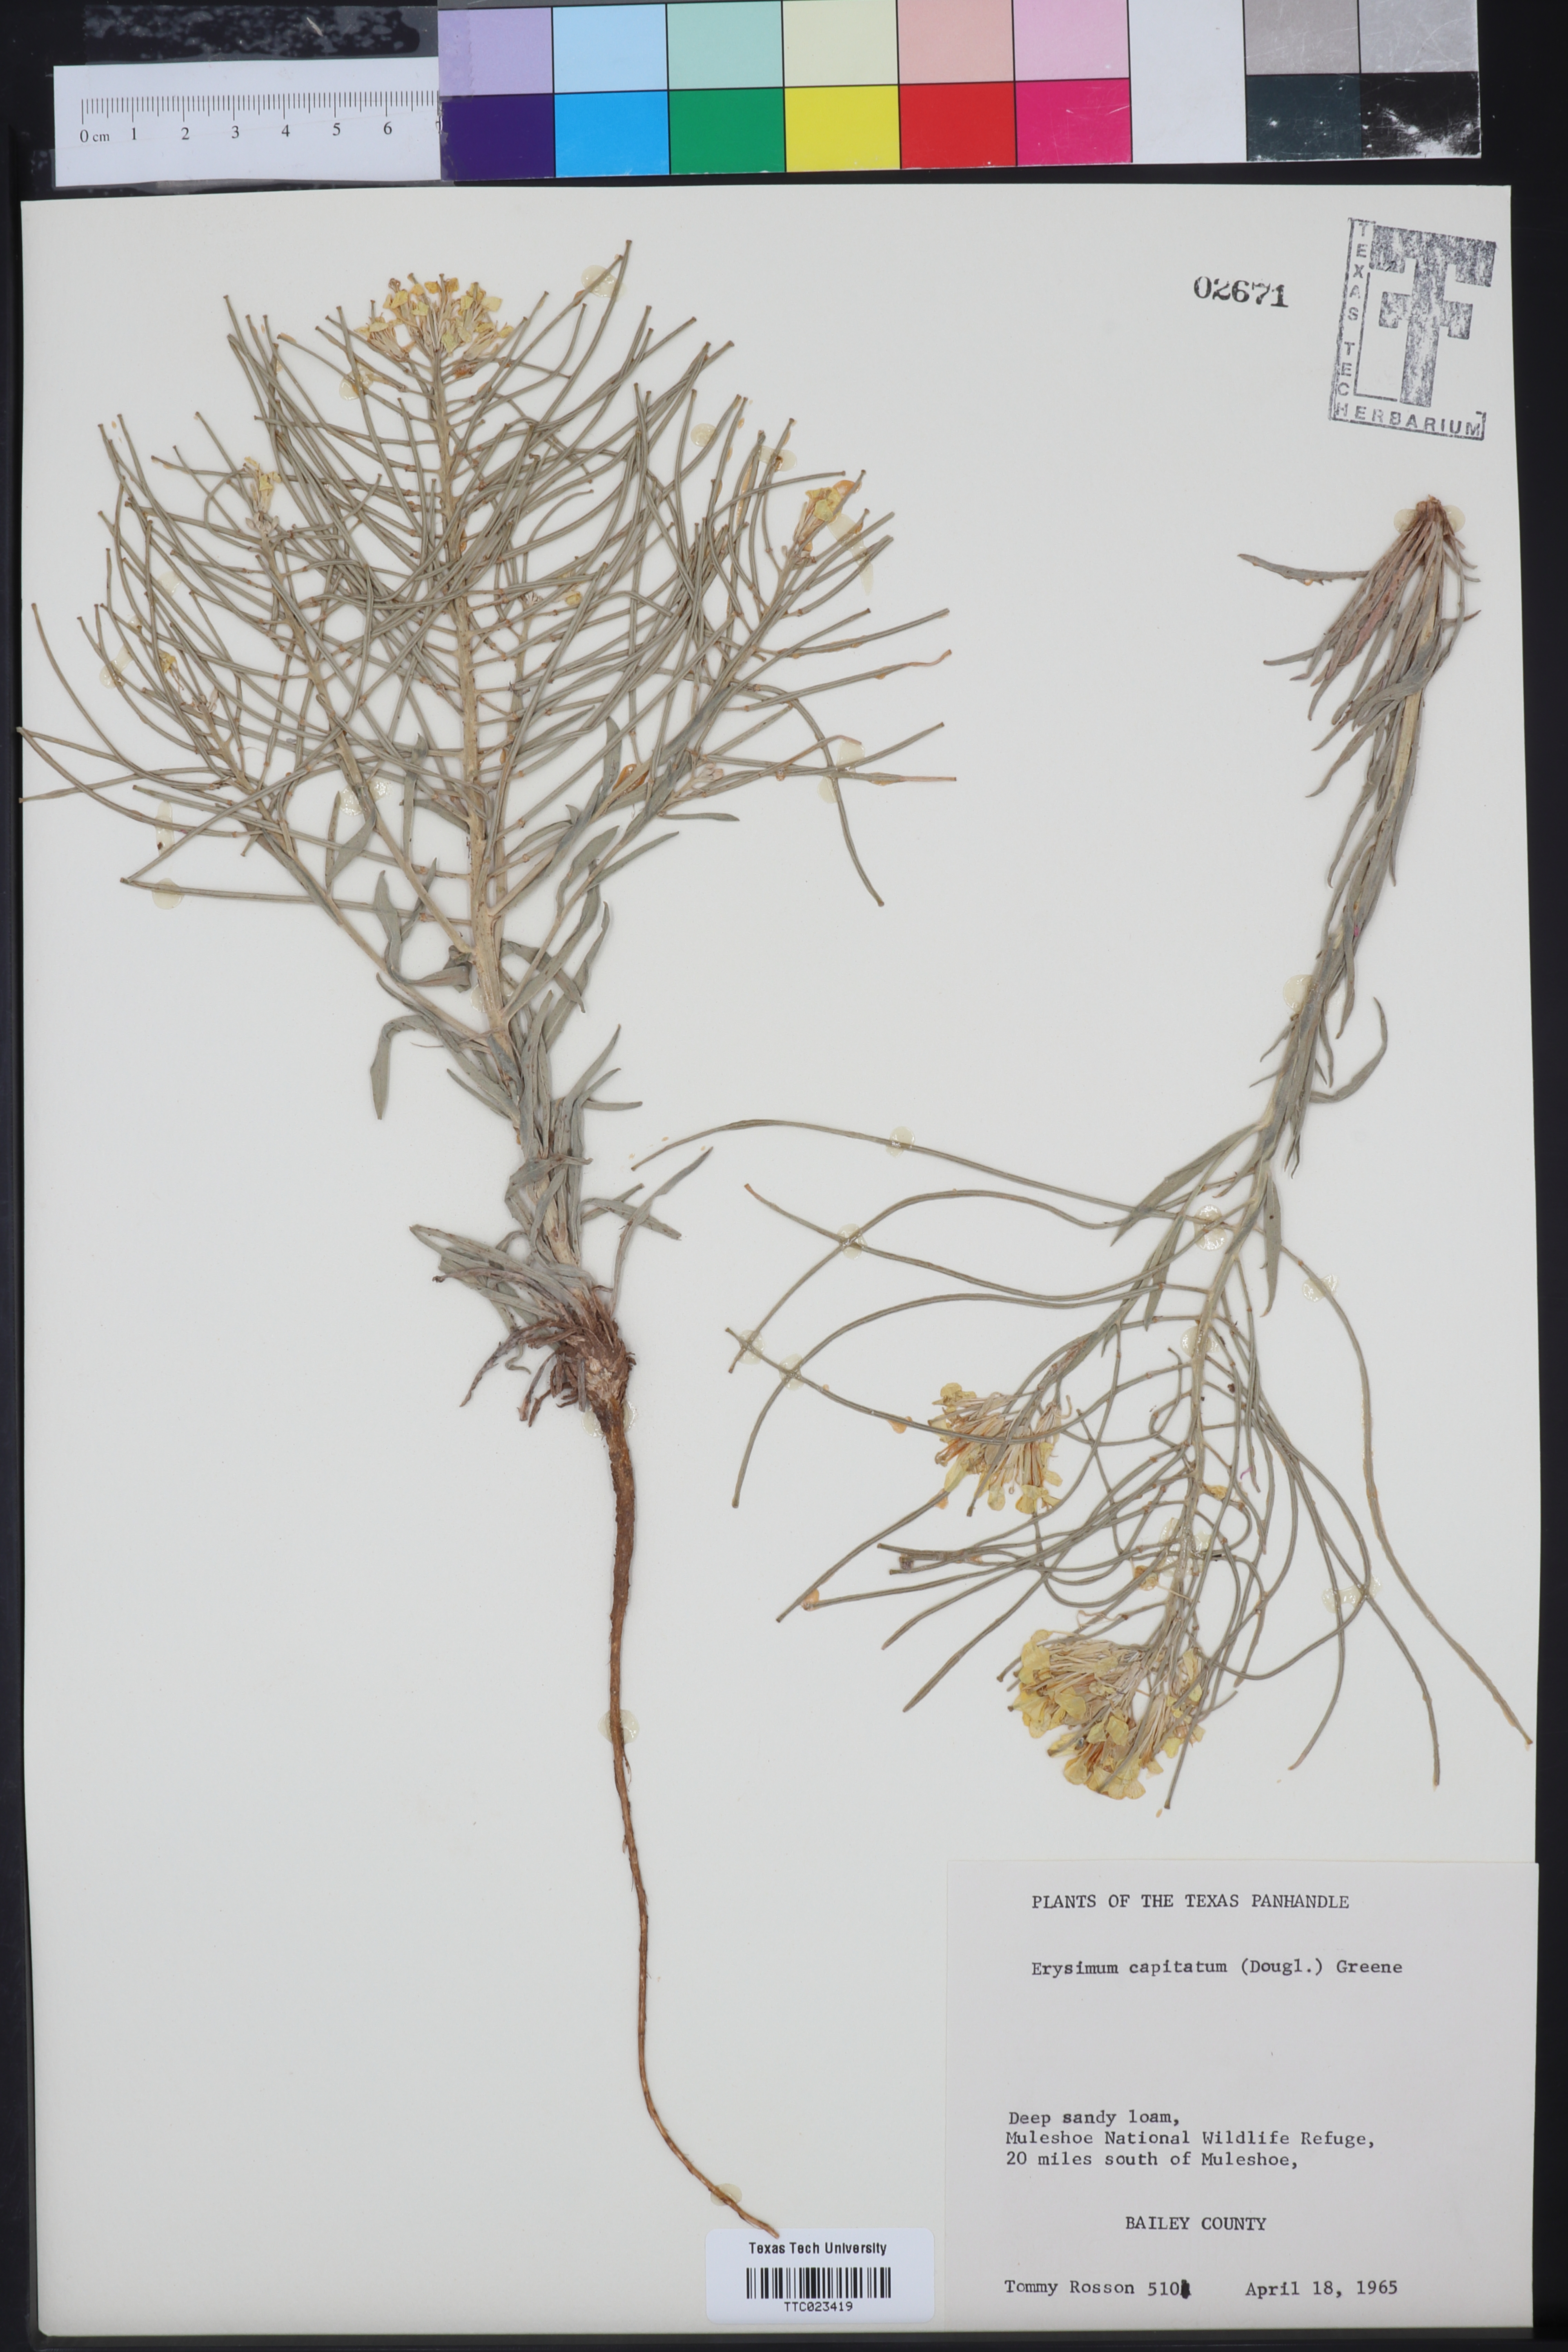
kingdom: Plantae
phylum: Tracheophyta
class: Magnoliopsida
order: Brassicales
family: Brassicaceae
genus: Erysimum
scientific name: Erysimum capitatum
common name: Western wallflower
